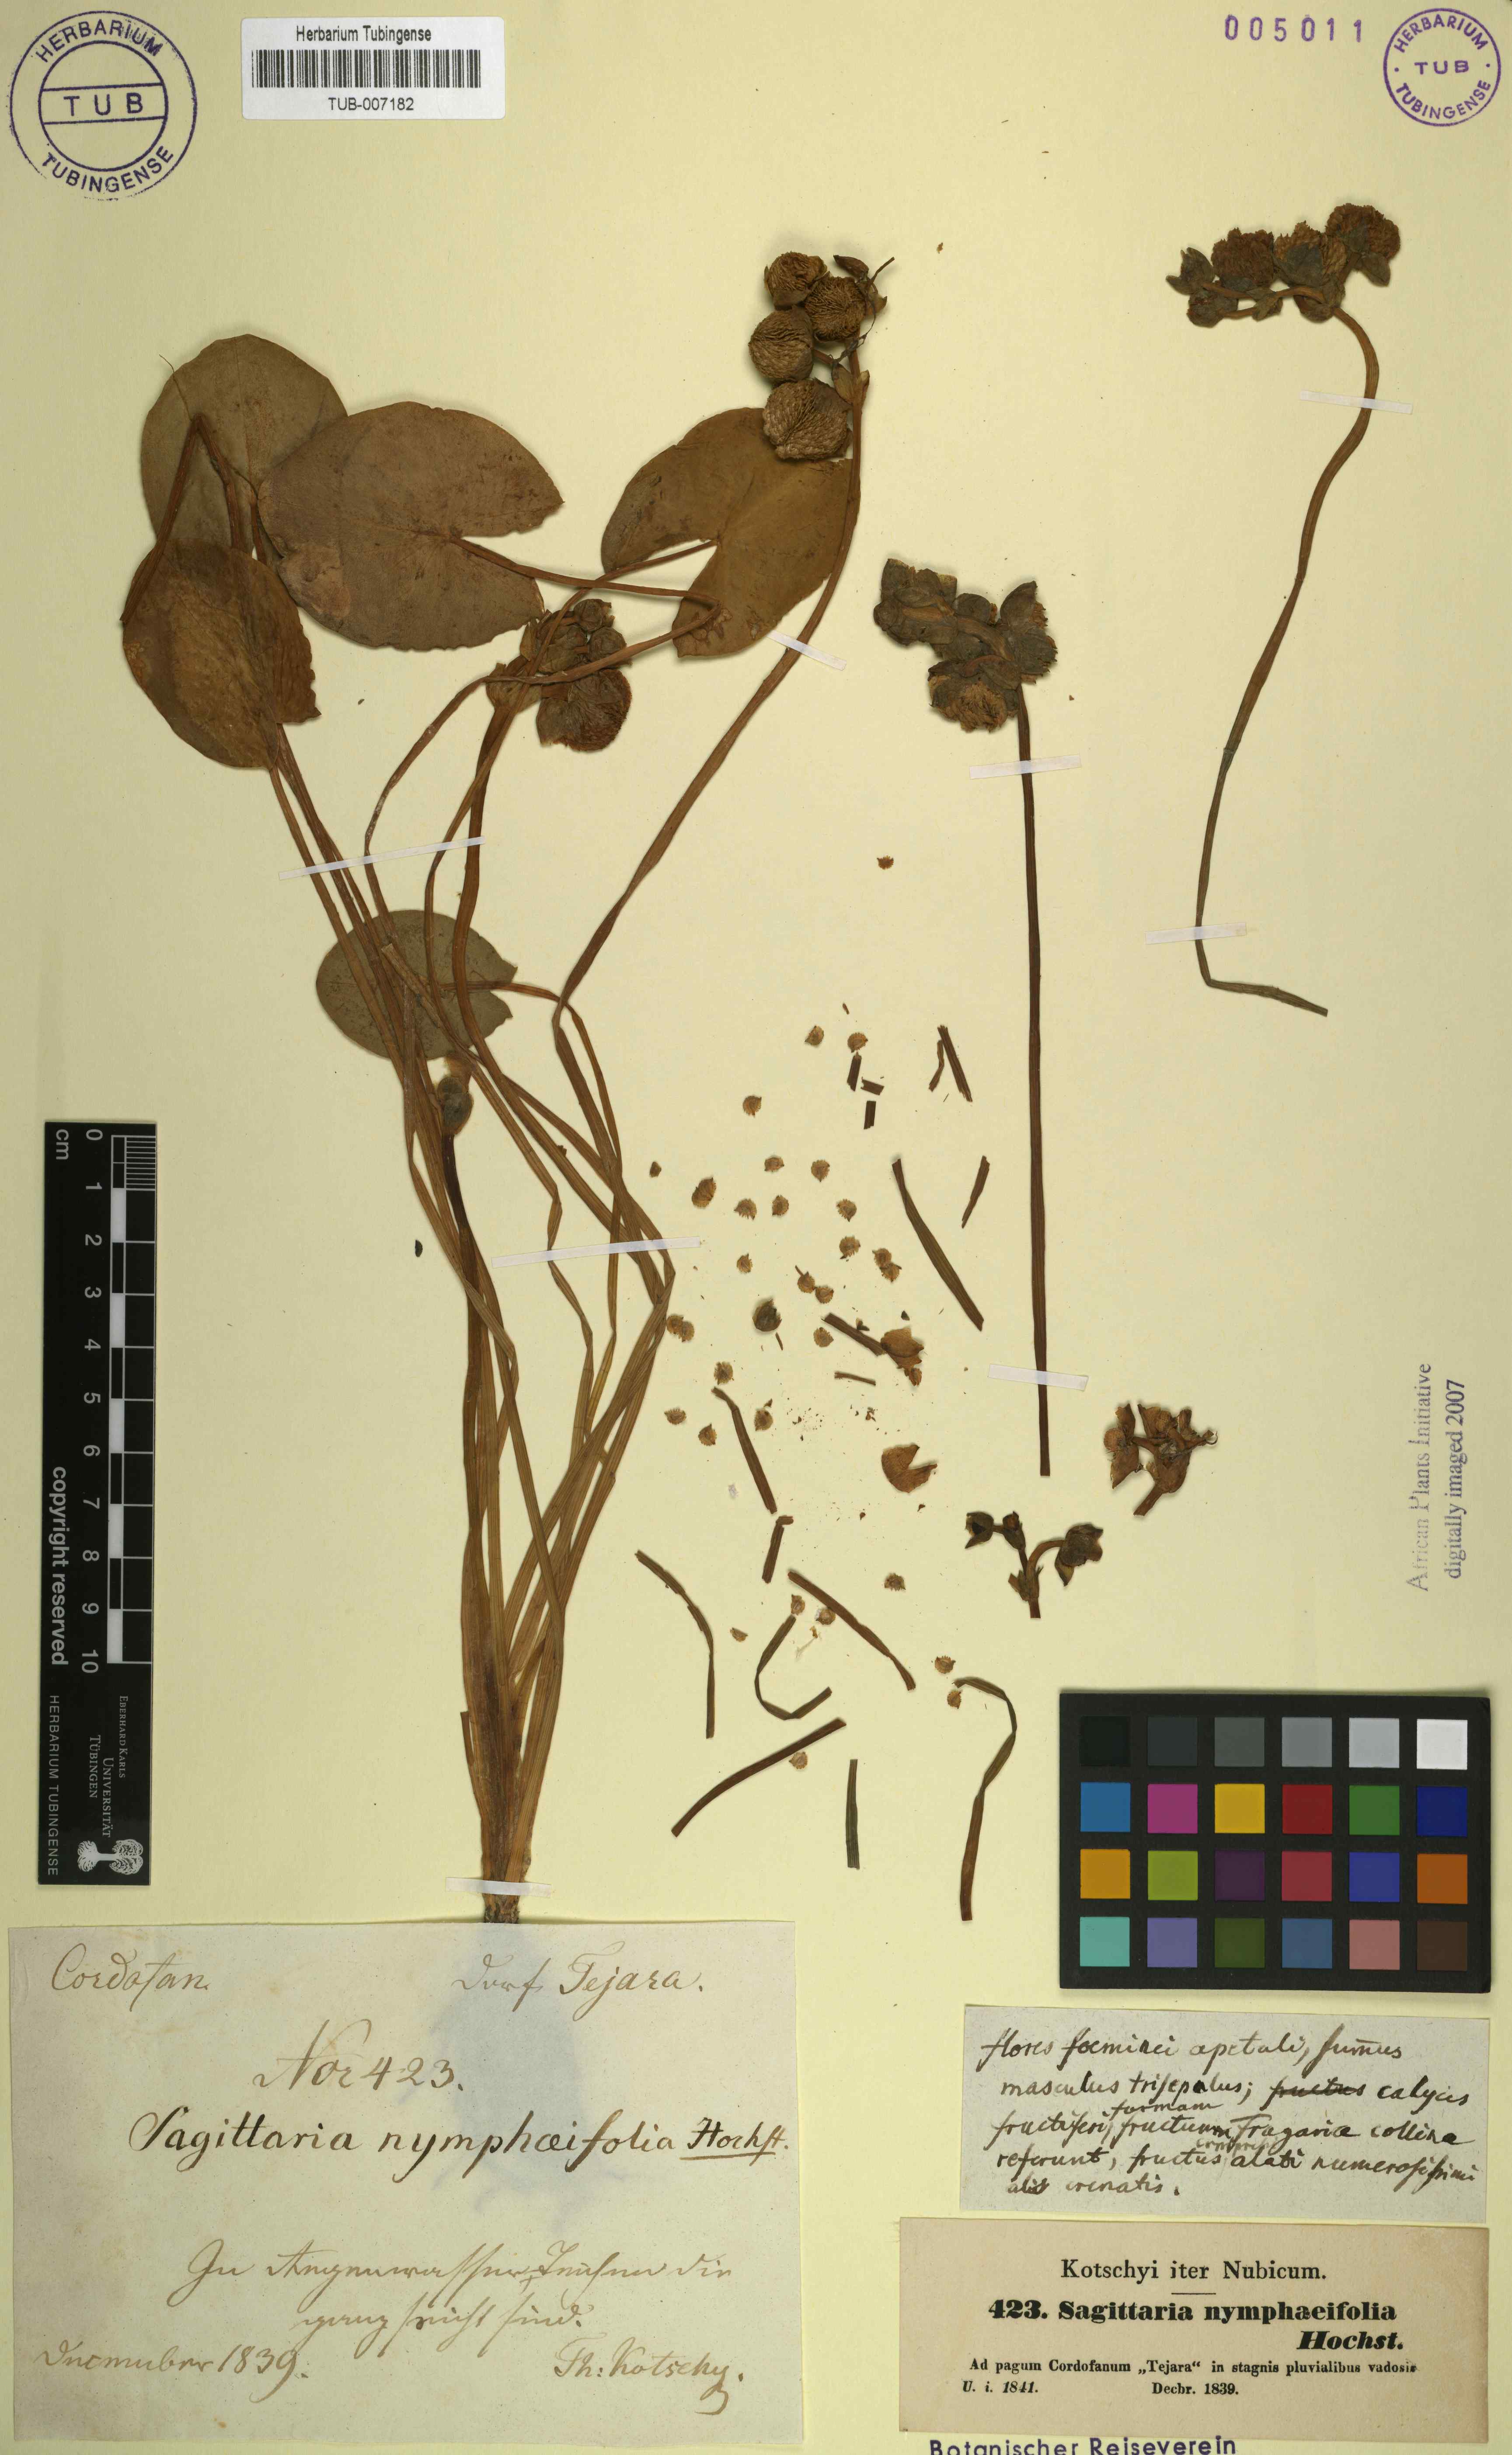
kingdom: Plantae
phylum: Tracheophyta
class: Liliopsida
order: Alismatales
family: Alismataceae
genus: Limnophyton
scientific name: Limnophyton obtusifolium
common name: Arrow head
